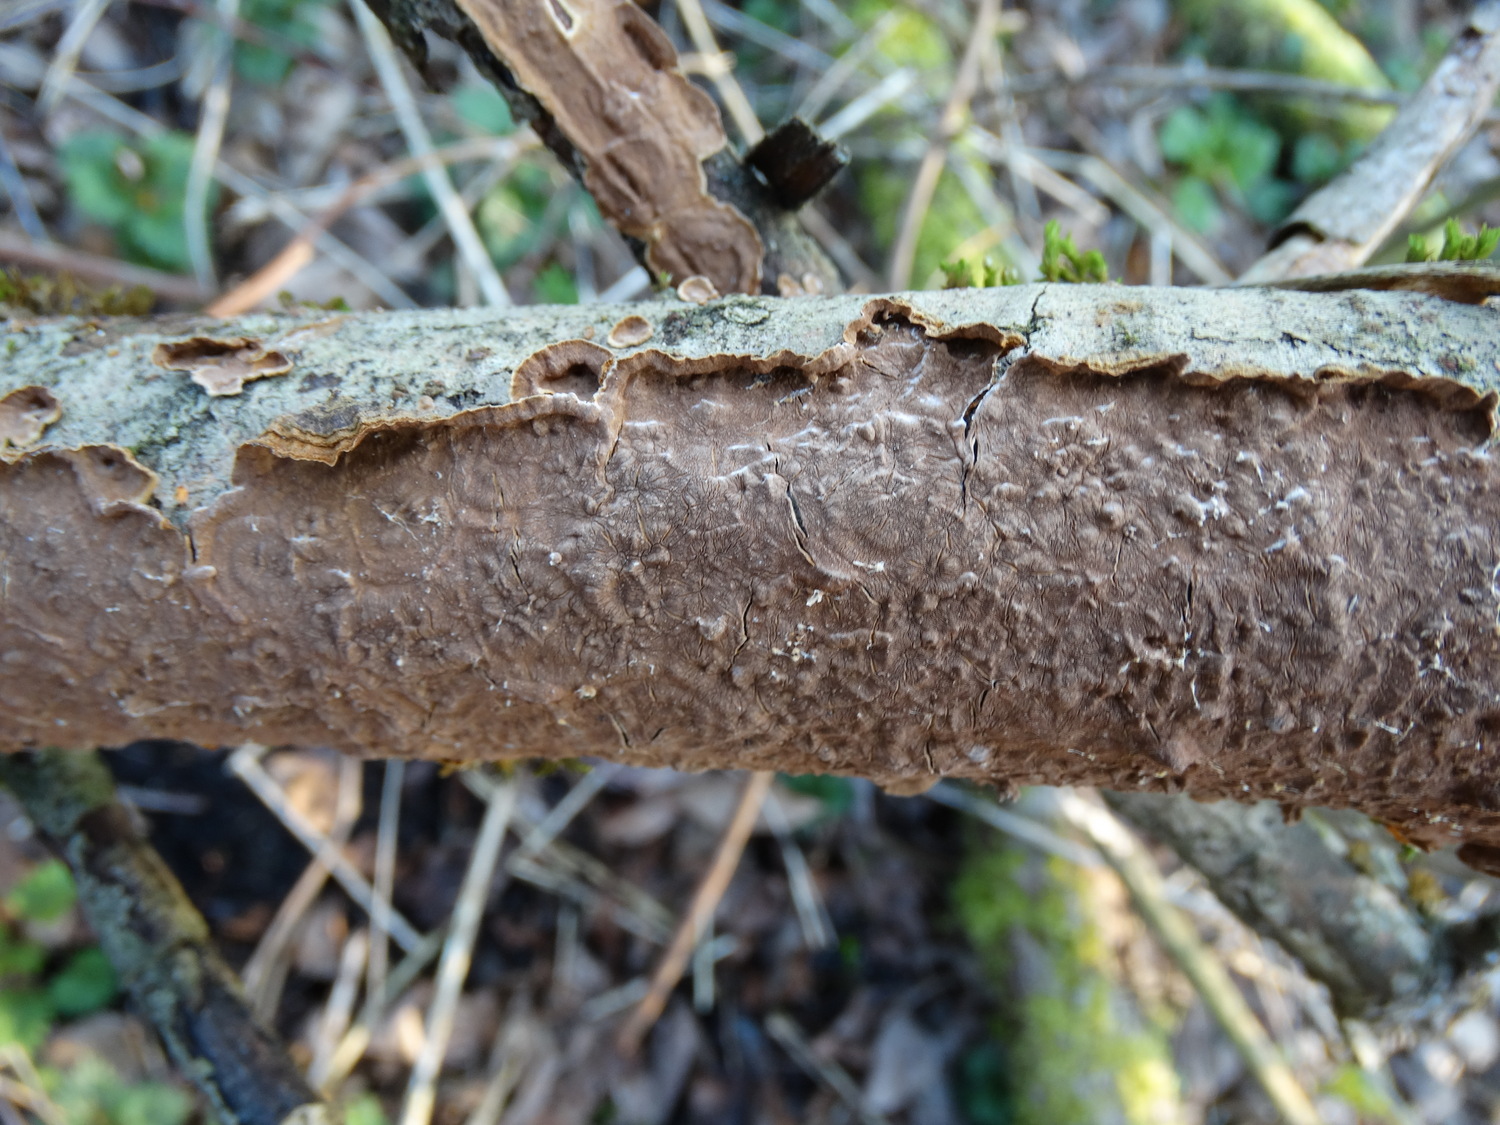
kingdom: Fungi
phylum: Basidiomycota
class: Agaricomycetes
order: Hymenochaetales
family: Hymenochaetaceae
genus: Hydnoporia
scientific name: Hydnoporia tabacina
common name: tobaksbrun ruslædersvamp
